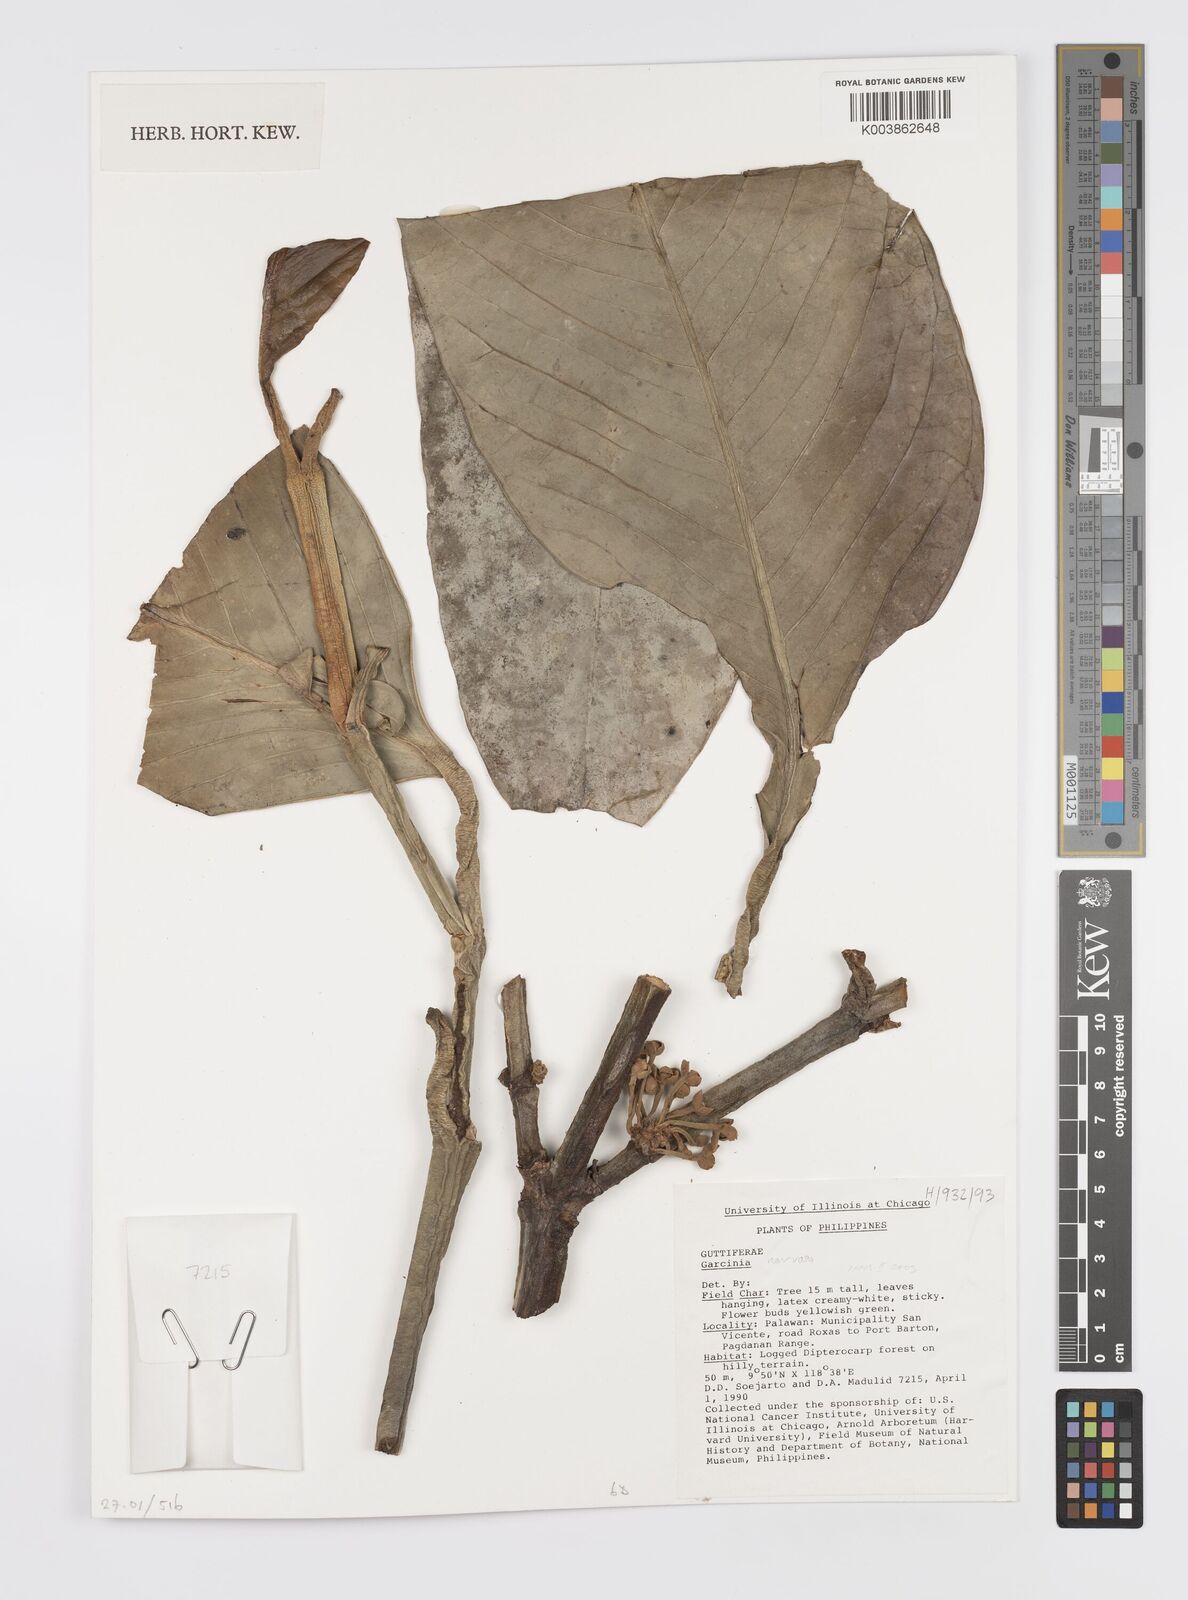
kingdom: Plantae
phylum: Tracheophyta
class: Magnoliopsida
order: Malpighiales
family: Clusiaceae
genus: Garcinia
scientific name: Garcinia nervosa
